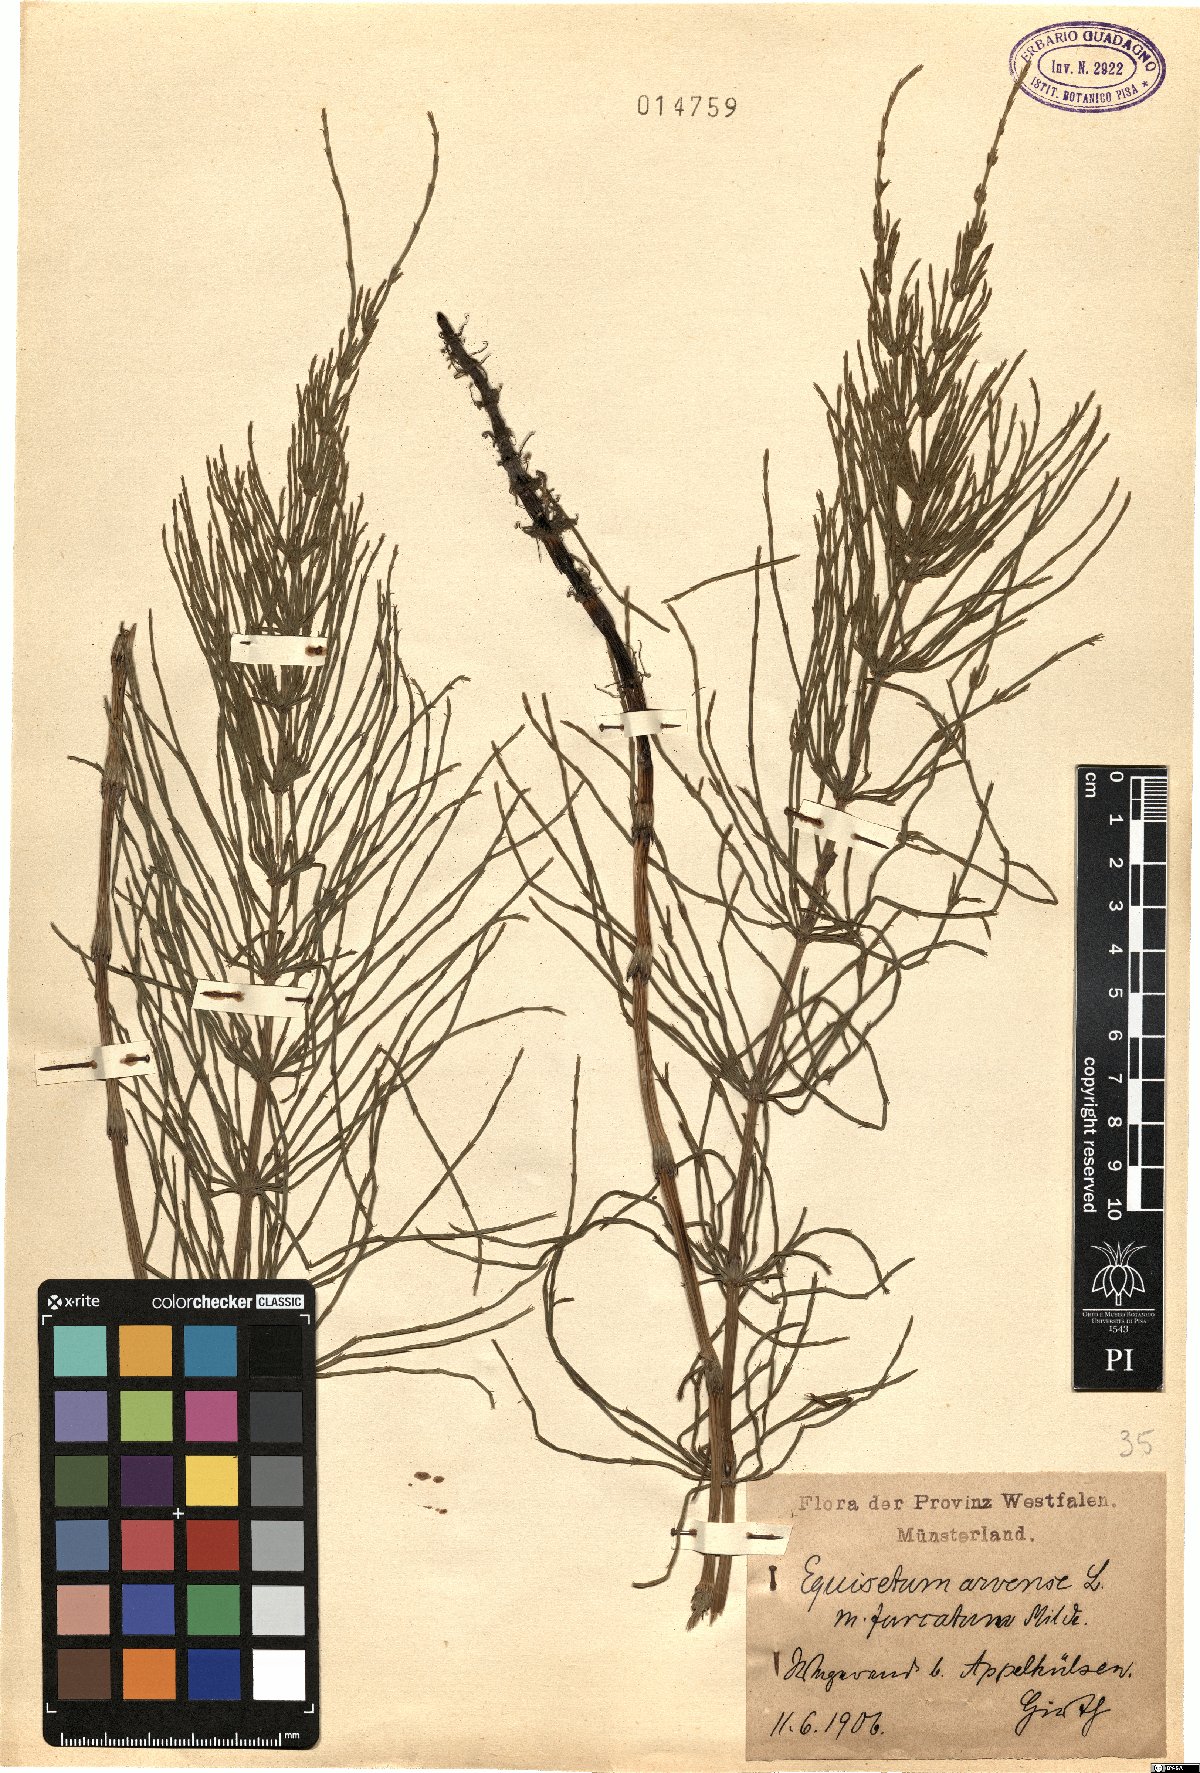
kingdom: Plantae
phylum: Tracheophyta
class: Polypodiopsida
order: Equisetales
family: Equisetaceae
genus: Equisetum
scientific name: Equisetum arvense
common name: Field horsetail
